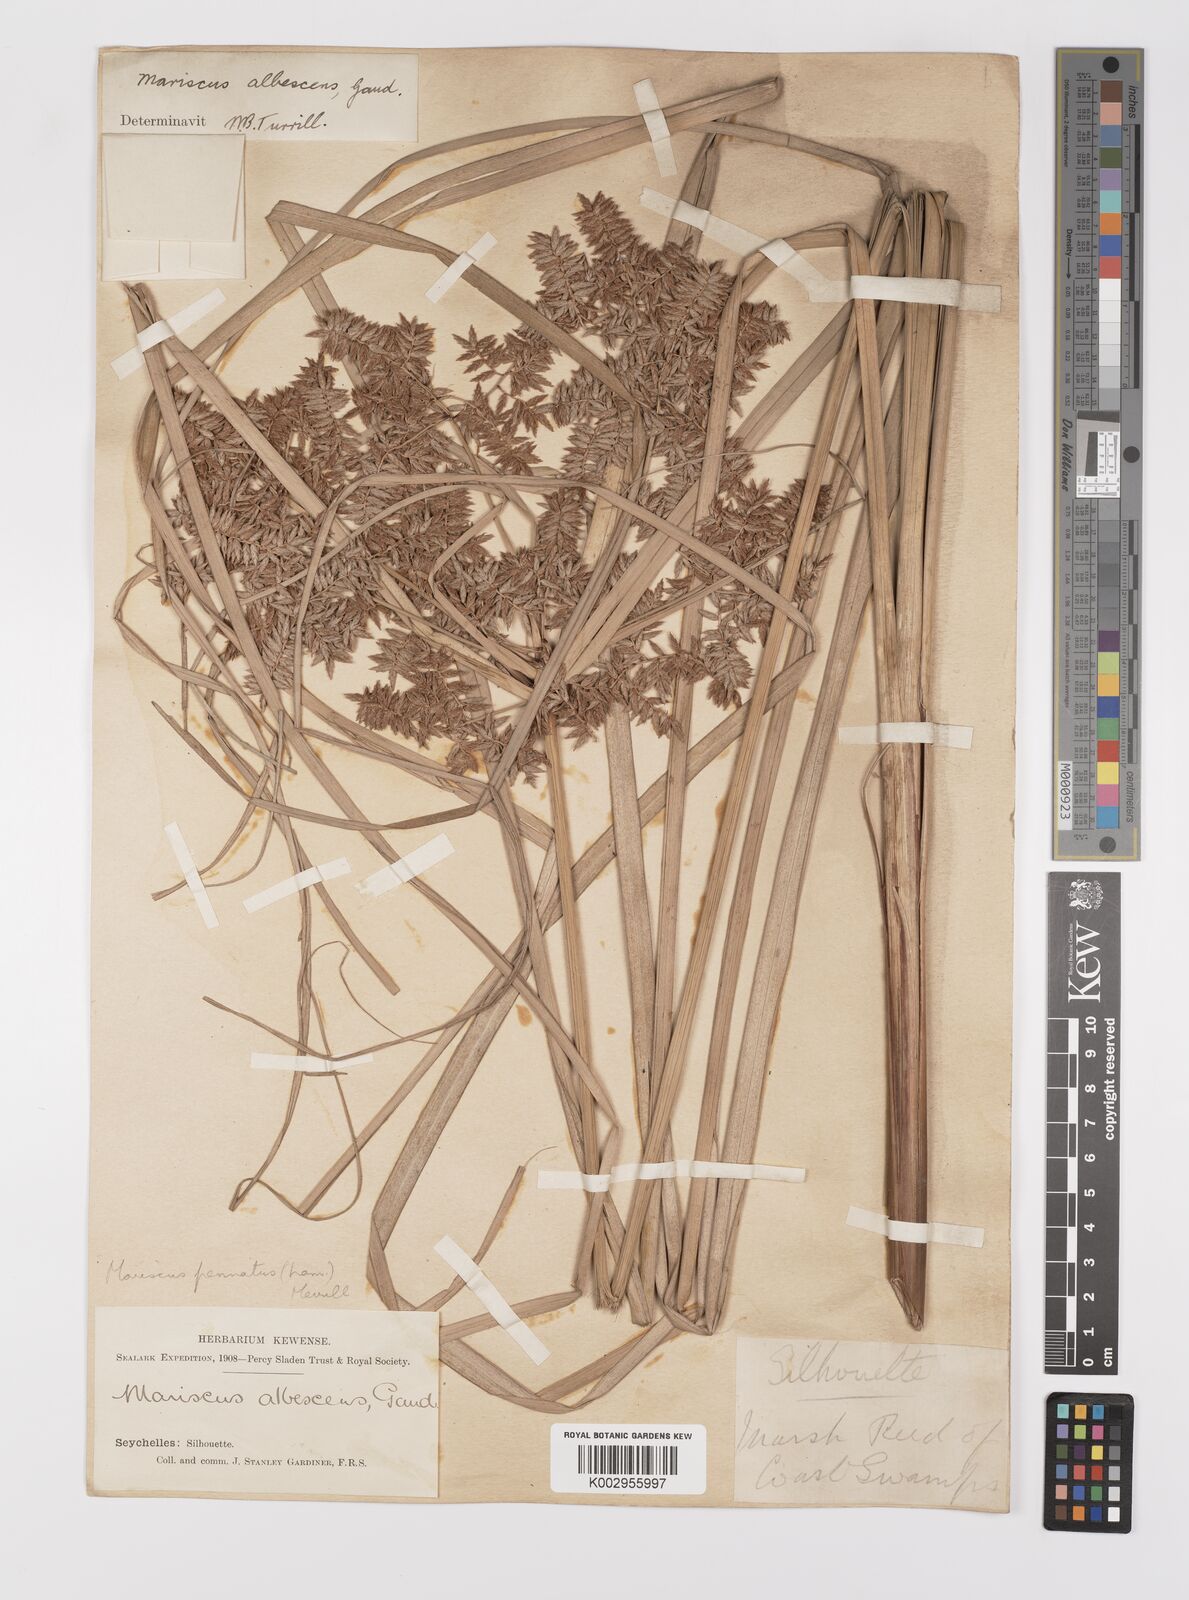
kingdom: Plantae
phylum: Tracheophyta
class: Liliopsida
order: Poales
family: Cyperaceae
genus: Cyperus
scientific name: Cyperus javanicus
